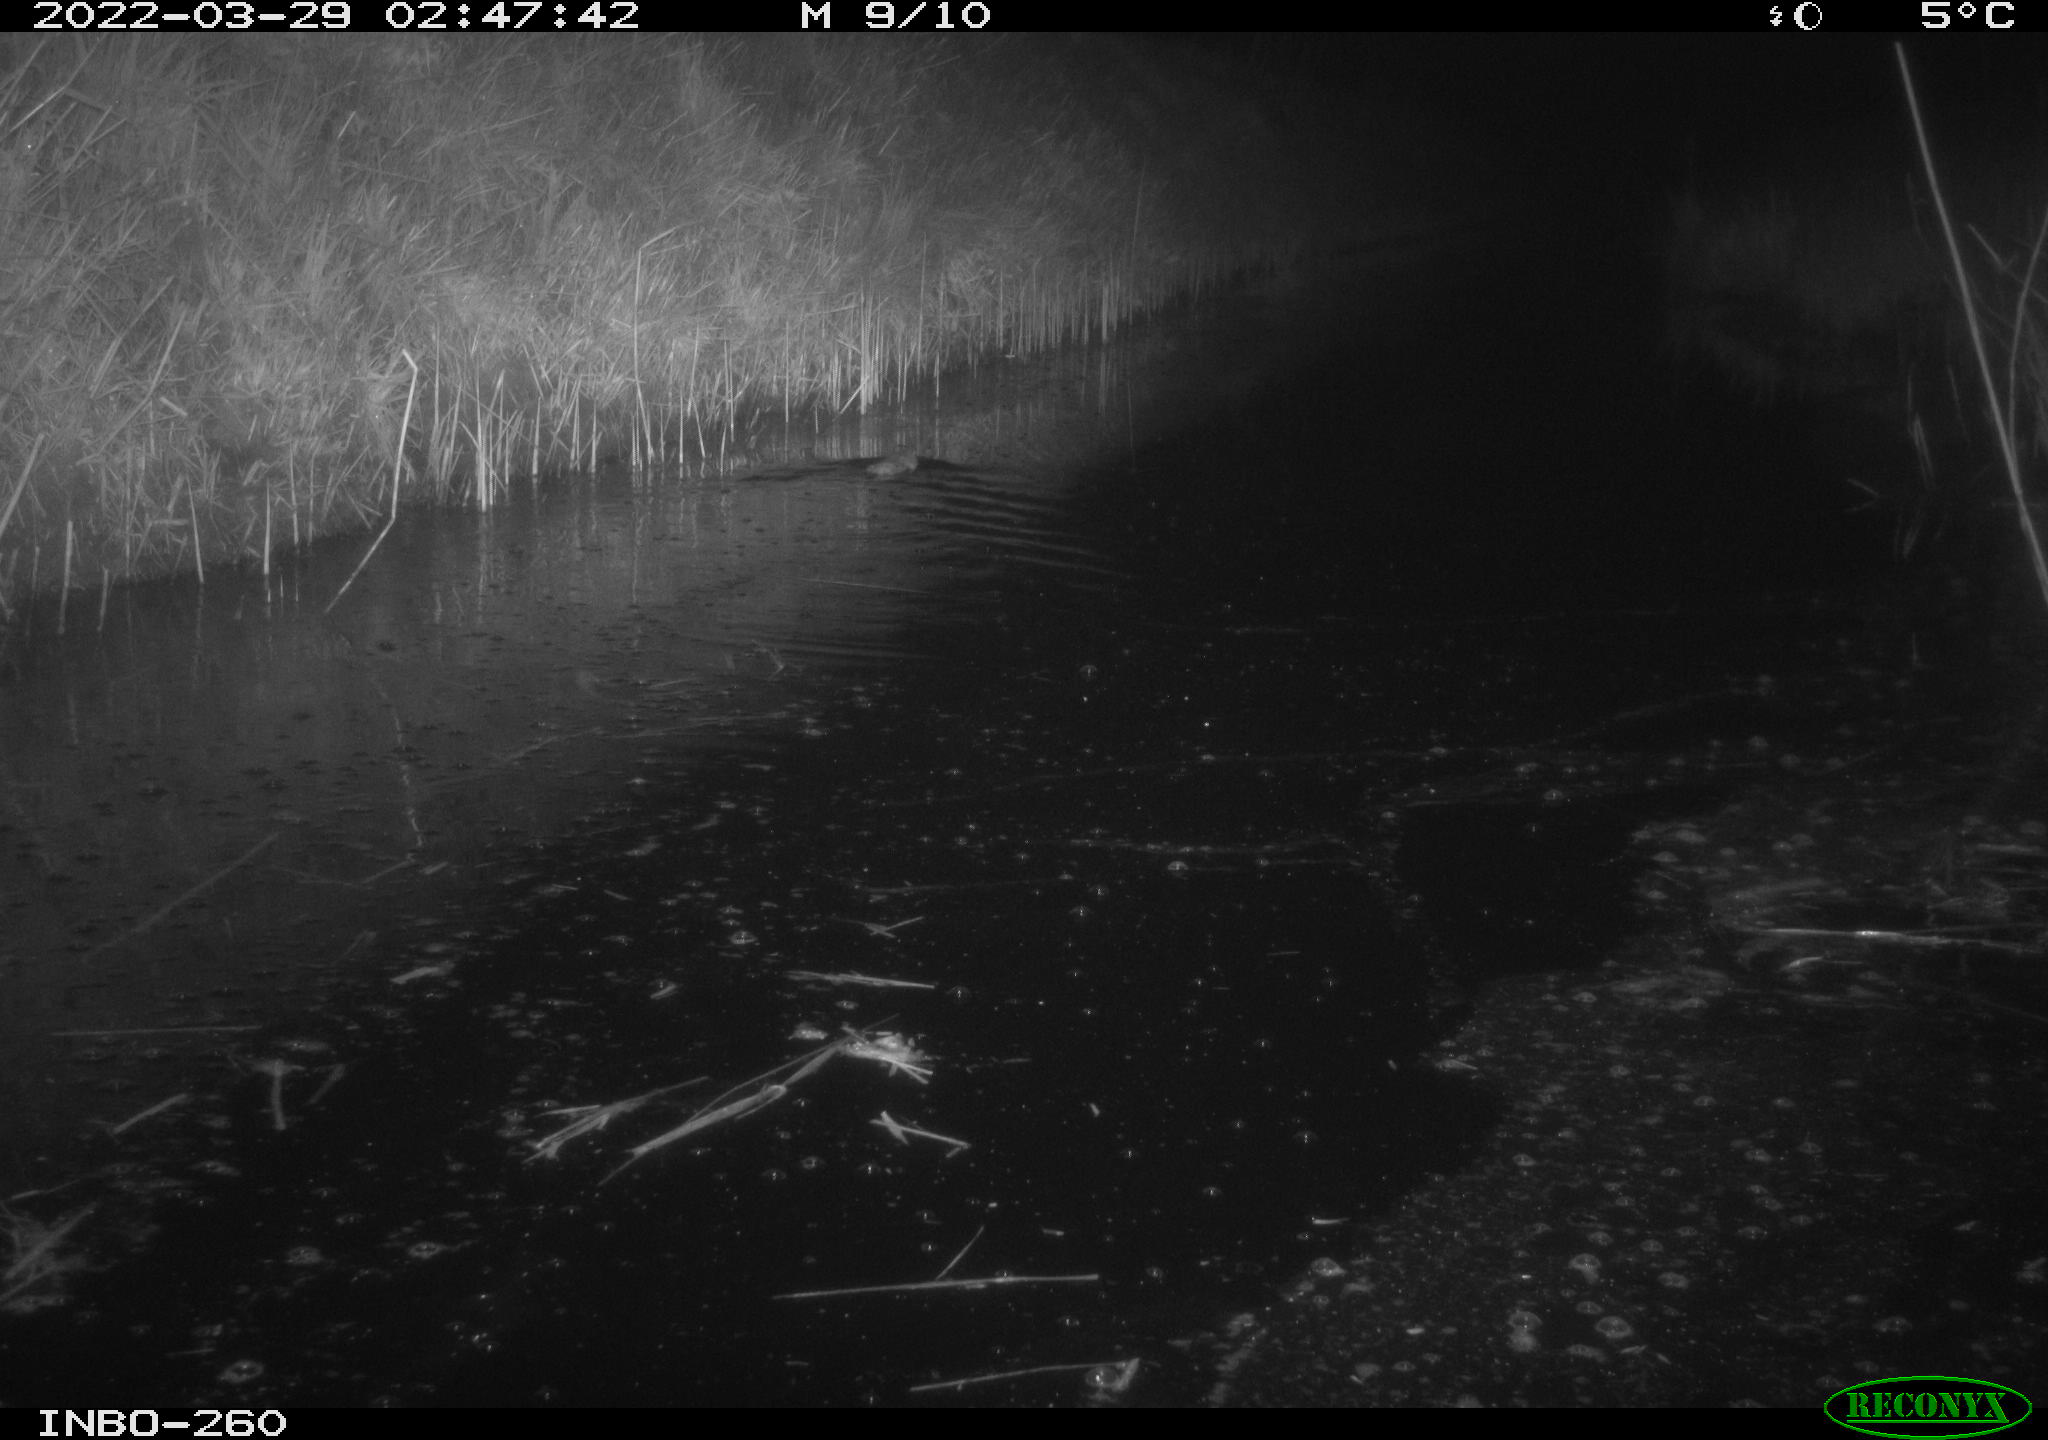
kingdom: Animalia
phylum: Chordata
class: Mammalia
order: Rodentia
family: Muridae
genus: Rattus
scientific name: Rattus norvegicus
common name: Brown rat
